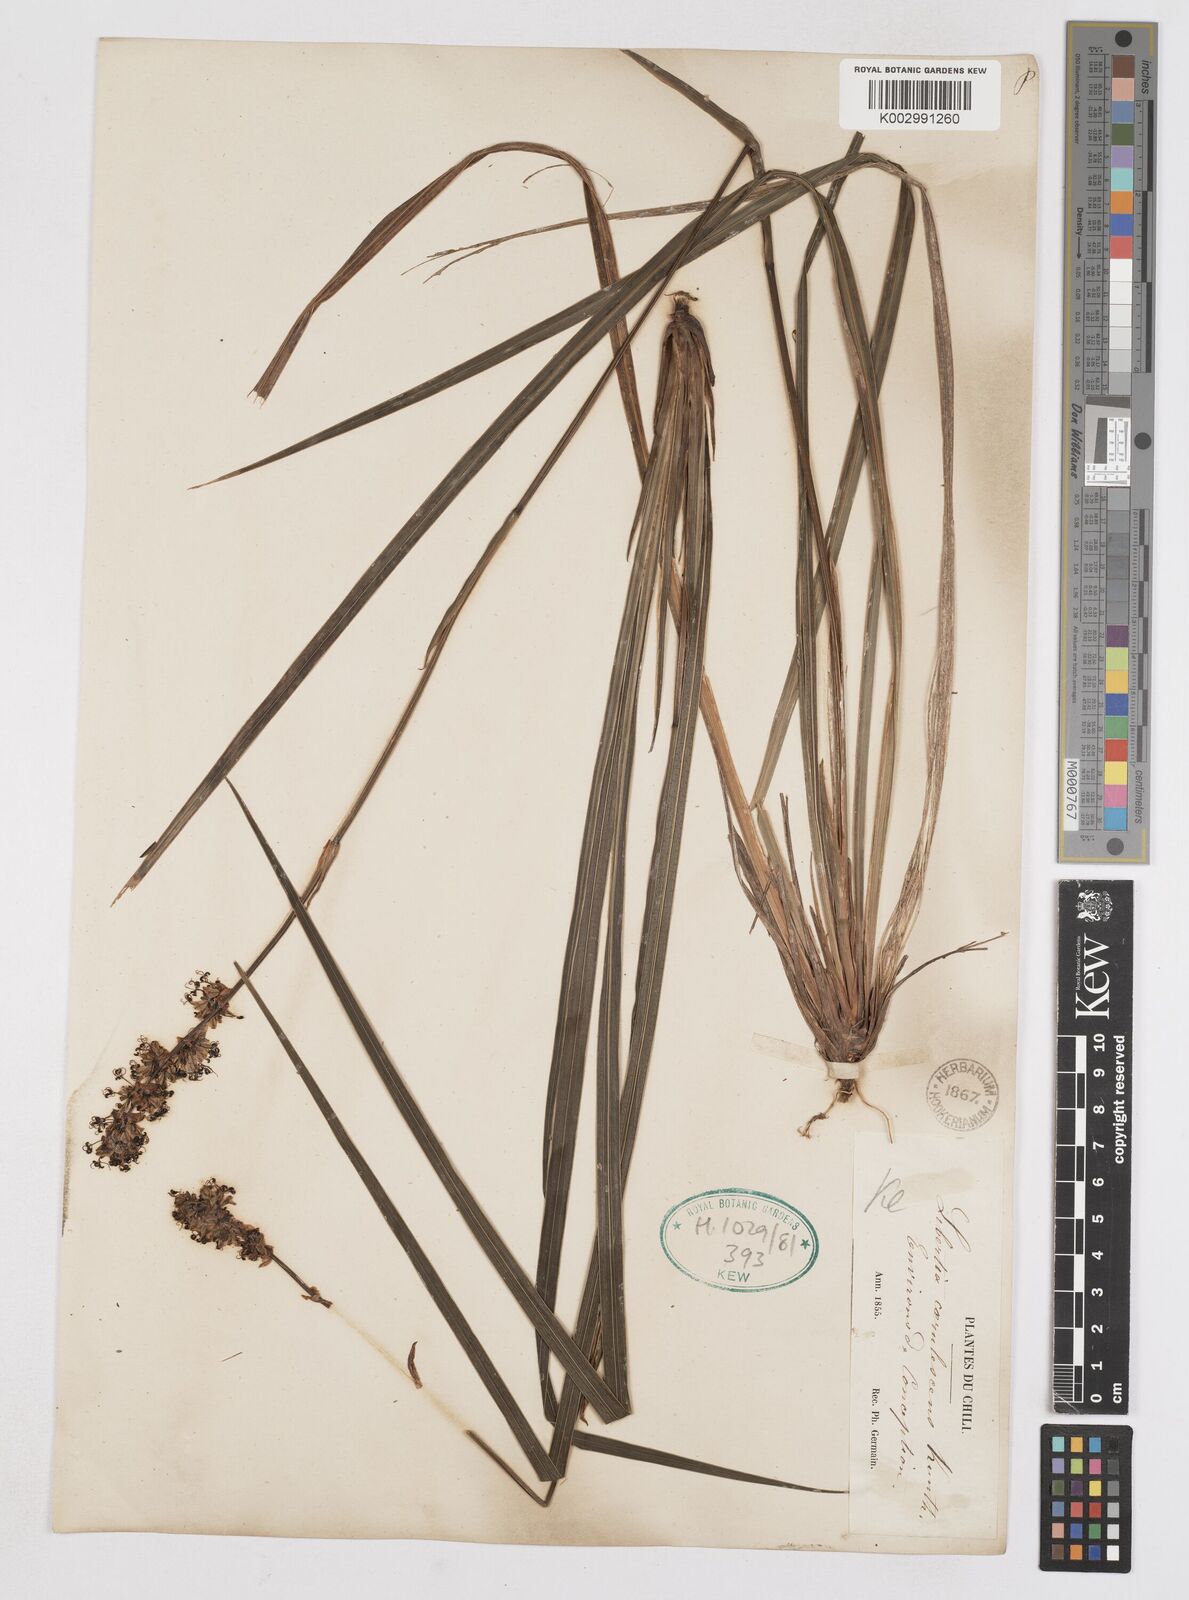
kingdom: Plantae
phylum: Tracheophyta
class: Liliopsida
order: Asparagales
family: Iridaceae
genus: Libertia
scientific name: Libertia sessiliflora
